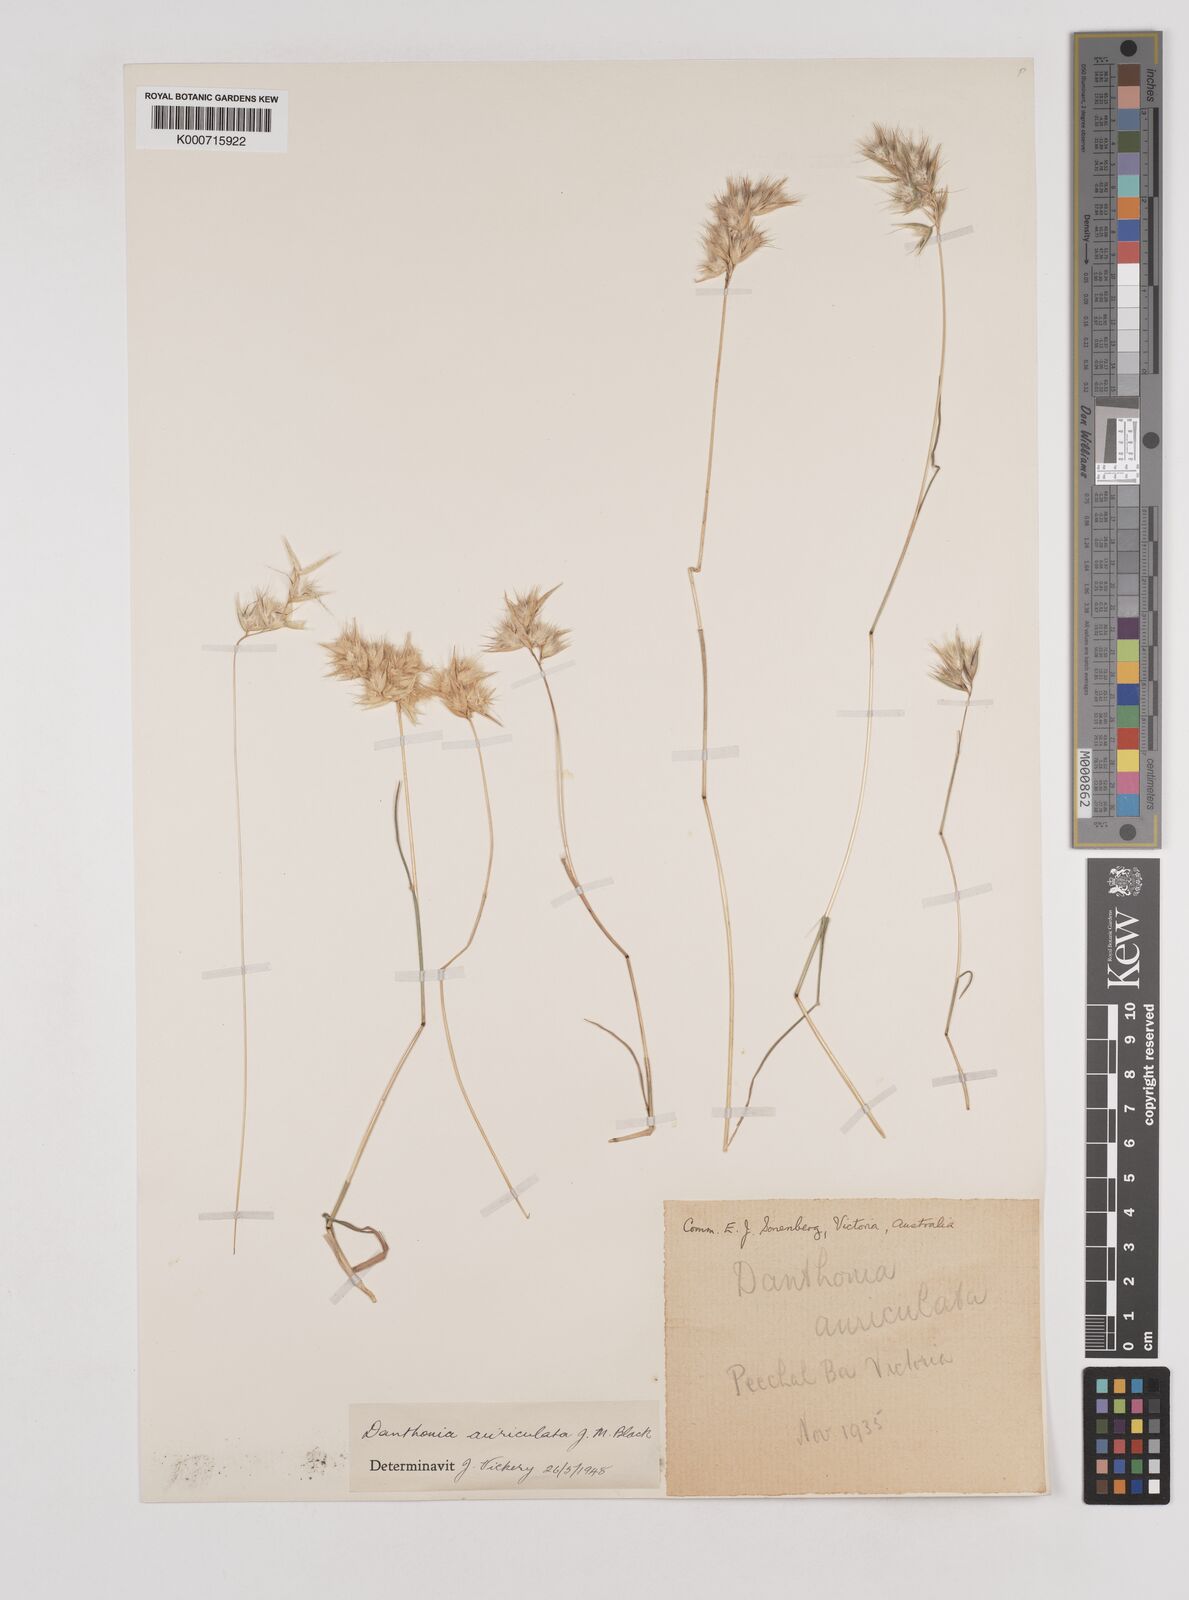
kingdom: Plantae
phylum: Tracheophyta
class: Liliopsida
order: Poales
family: Poaceae
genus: Rytidosperma
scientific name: Rytidosperma auriculatum
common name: Lobed wallaby grass
